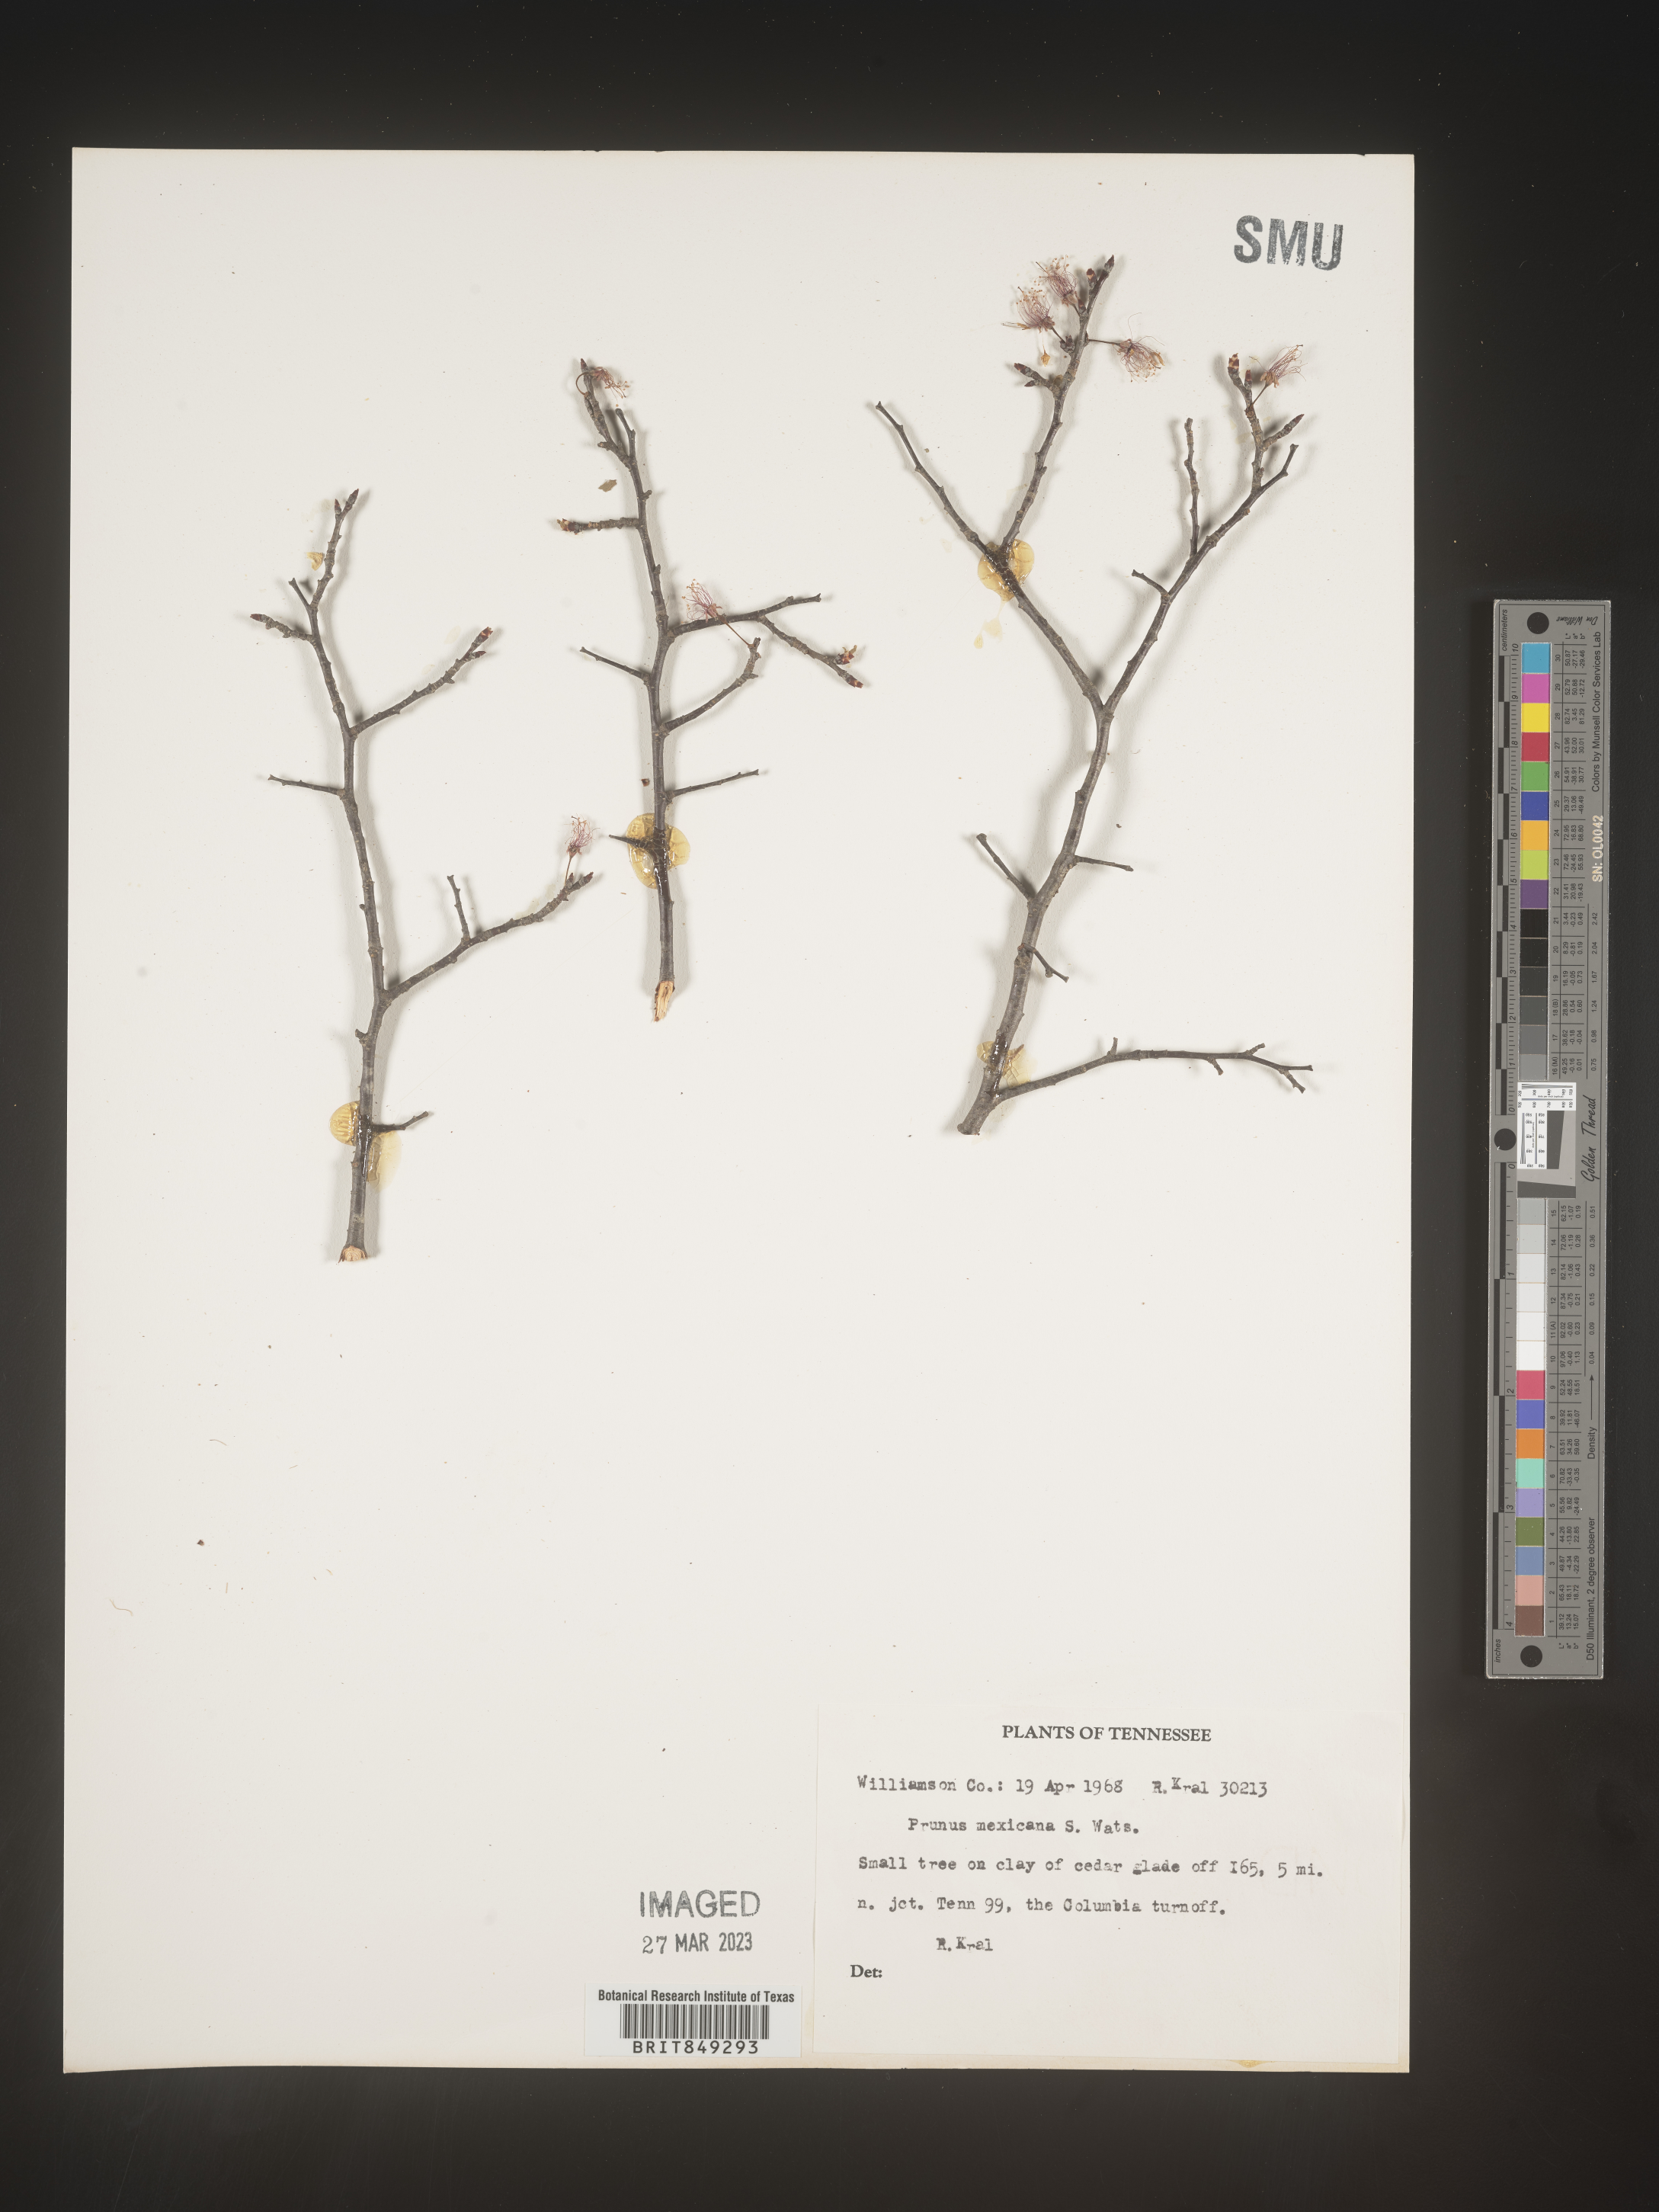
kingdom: Plantae
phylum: Tracheophyta
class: Magnoliopsida
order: Rosales
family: Rosaceae
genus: Prunus
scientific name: Prunus mexicana
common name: Mexican plum
